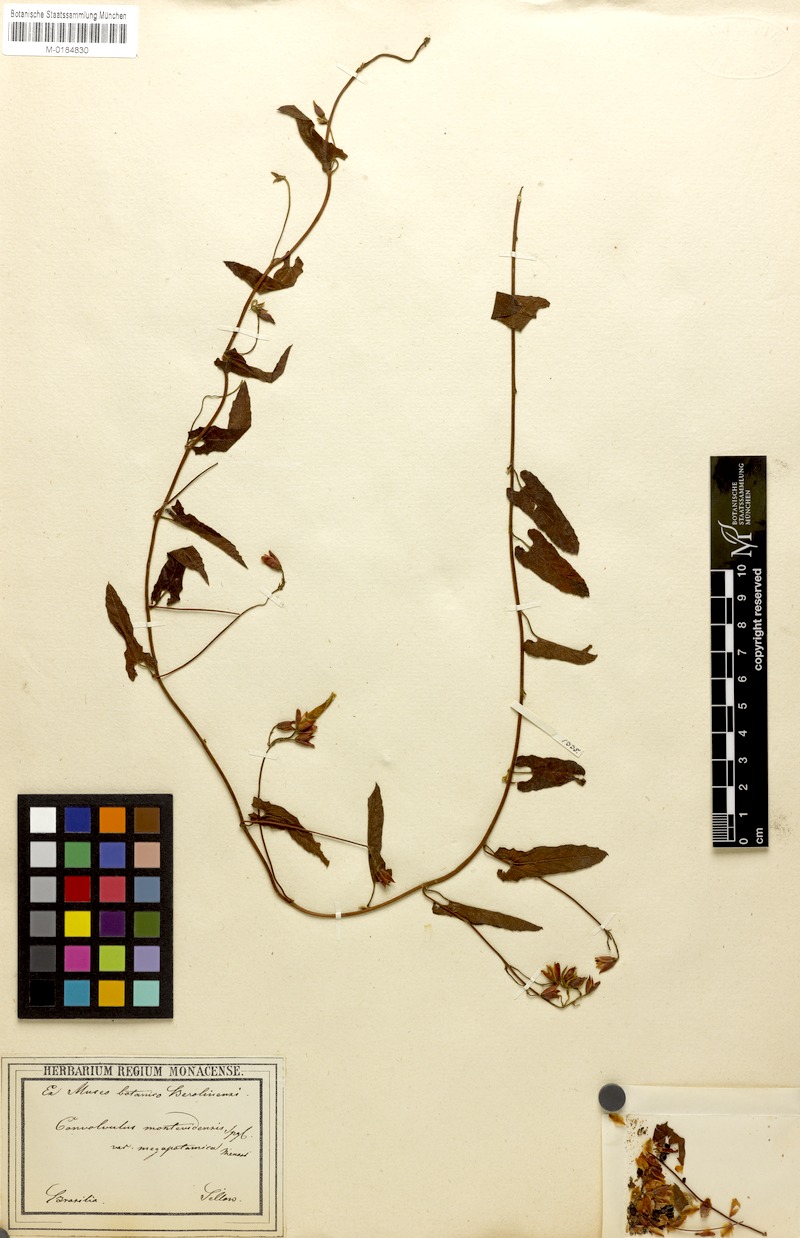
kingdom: Plantae
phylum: Tracheophyta
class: Magnoliopsida
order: Solanales
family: Convolvulaceae
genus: Convolvulus
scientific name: Convolvulus crenatifolius
